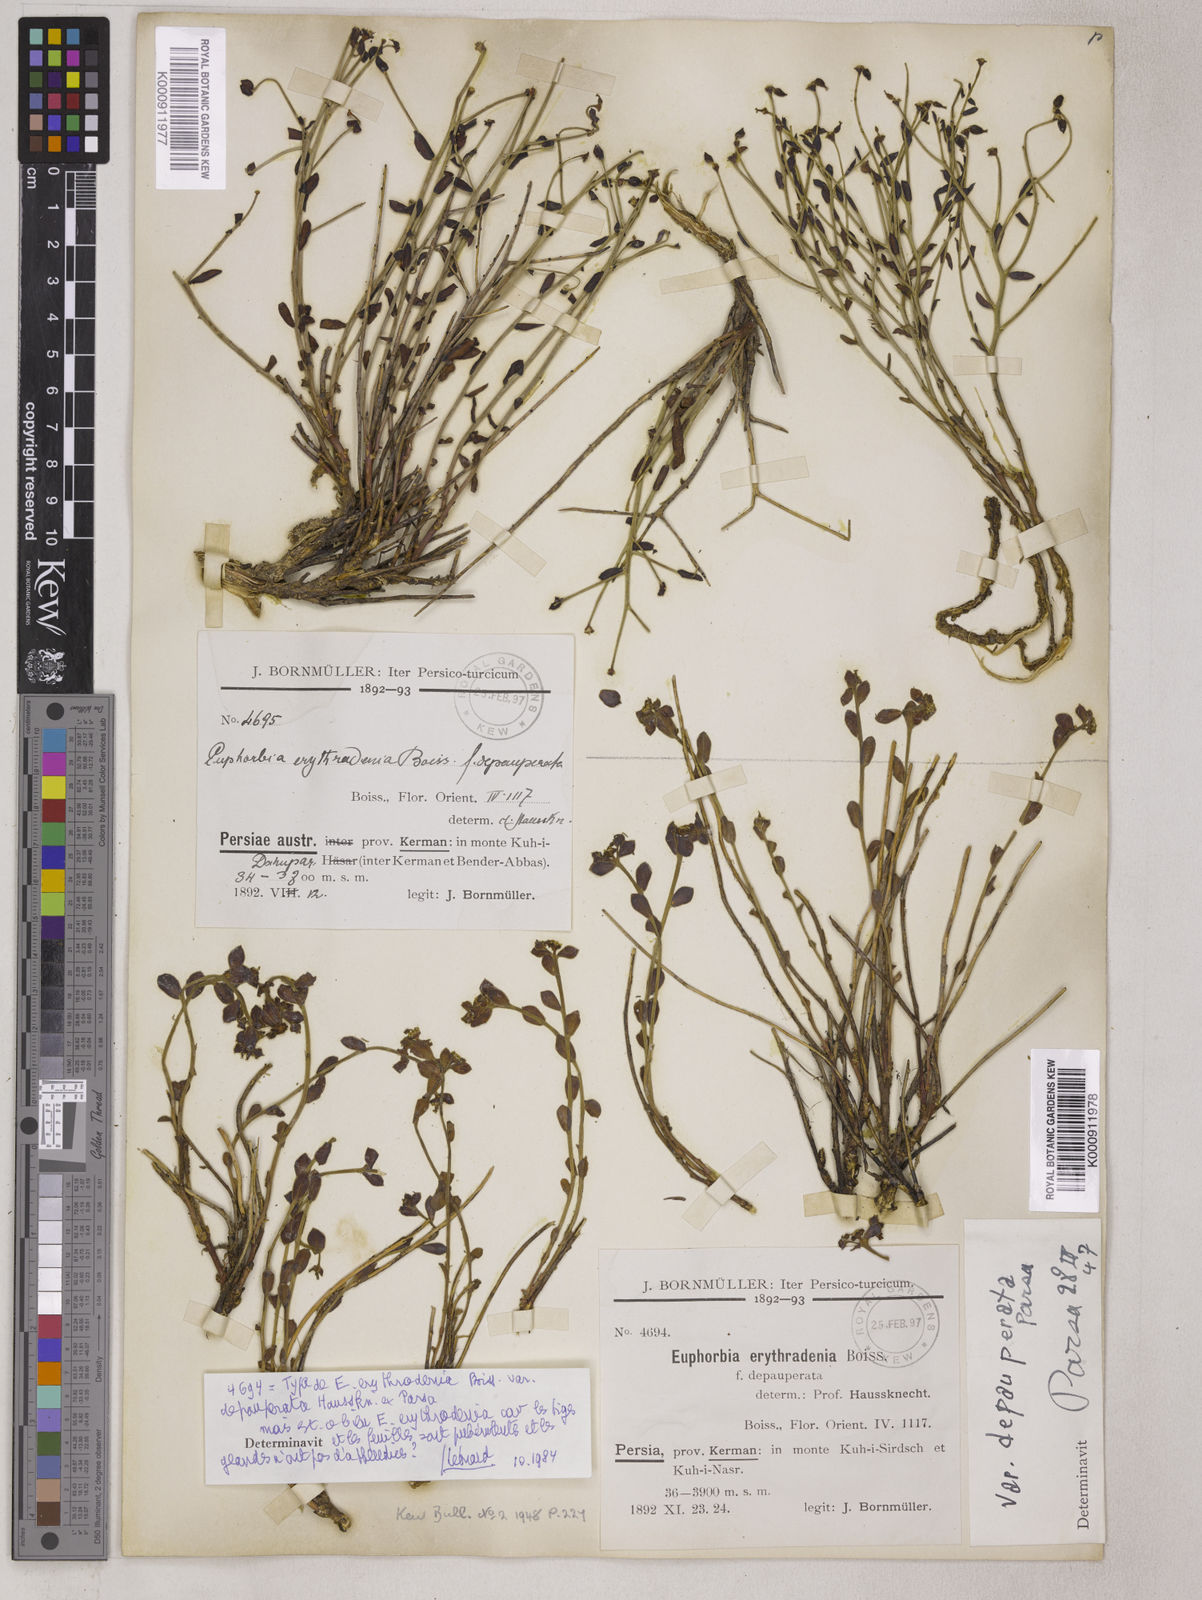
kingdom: Plantae
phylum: Tracheophyta
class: Magnoliopsida
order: Malpighiales
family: Euphorbiaceae
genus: Euphorbia
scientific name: Euphorbia erythradenia
